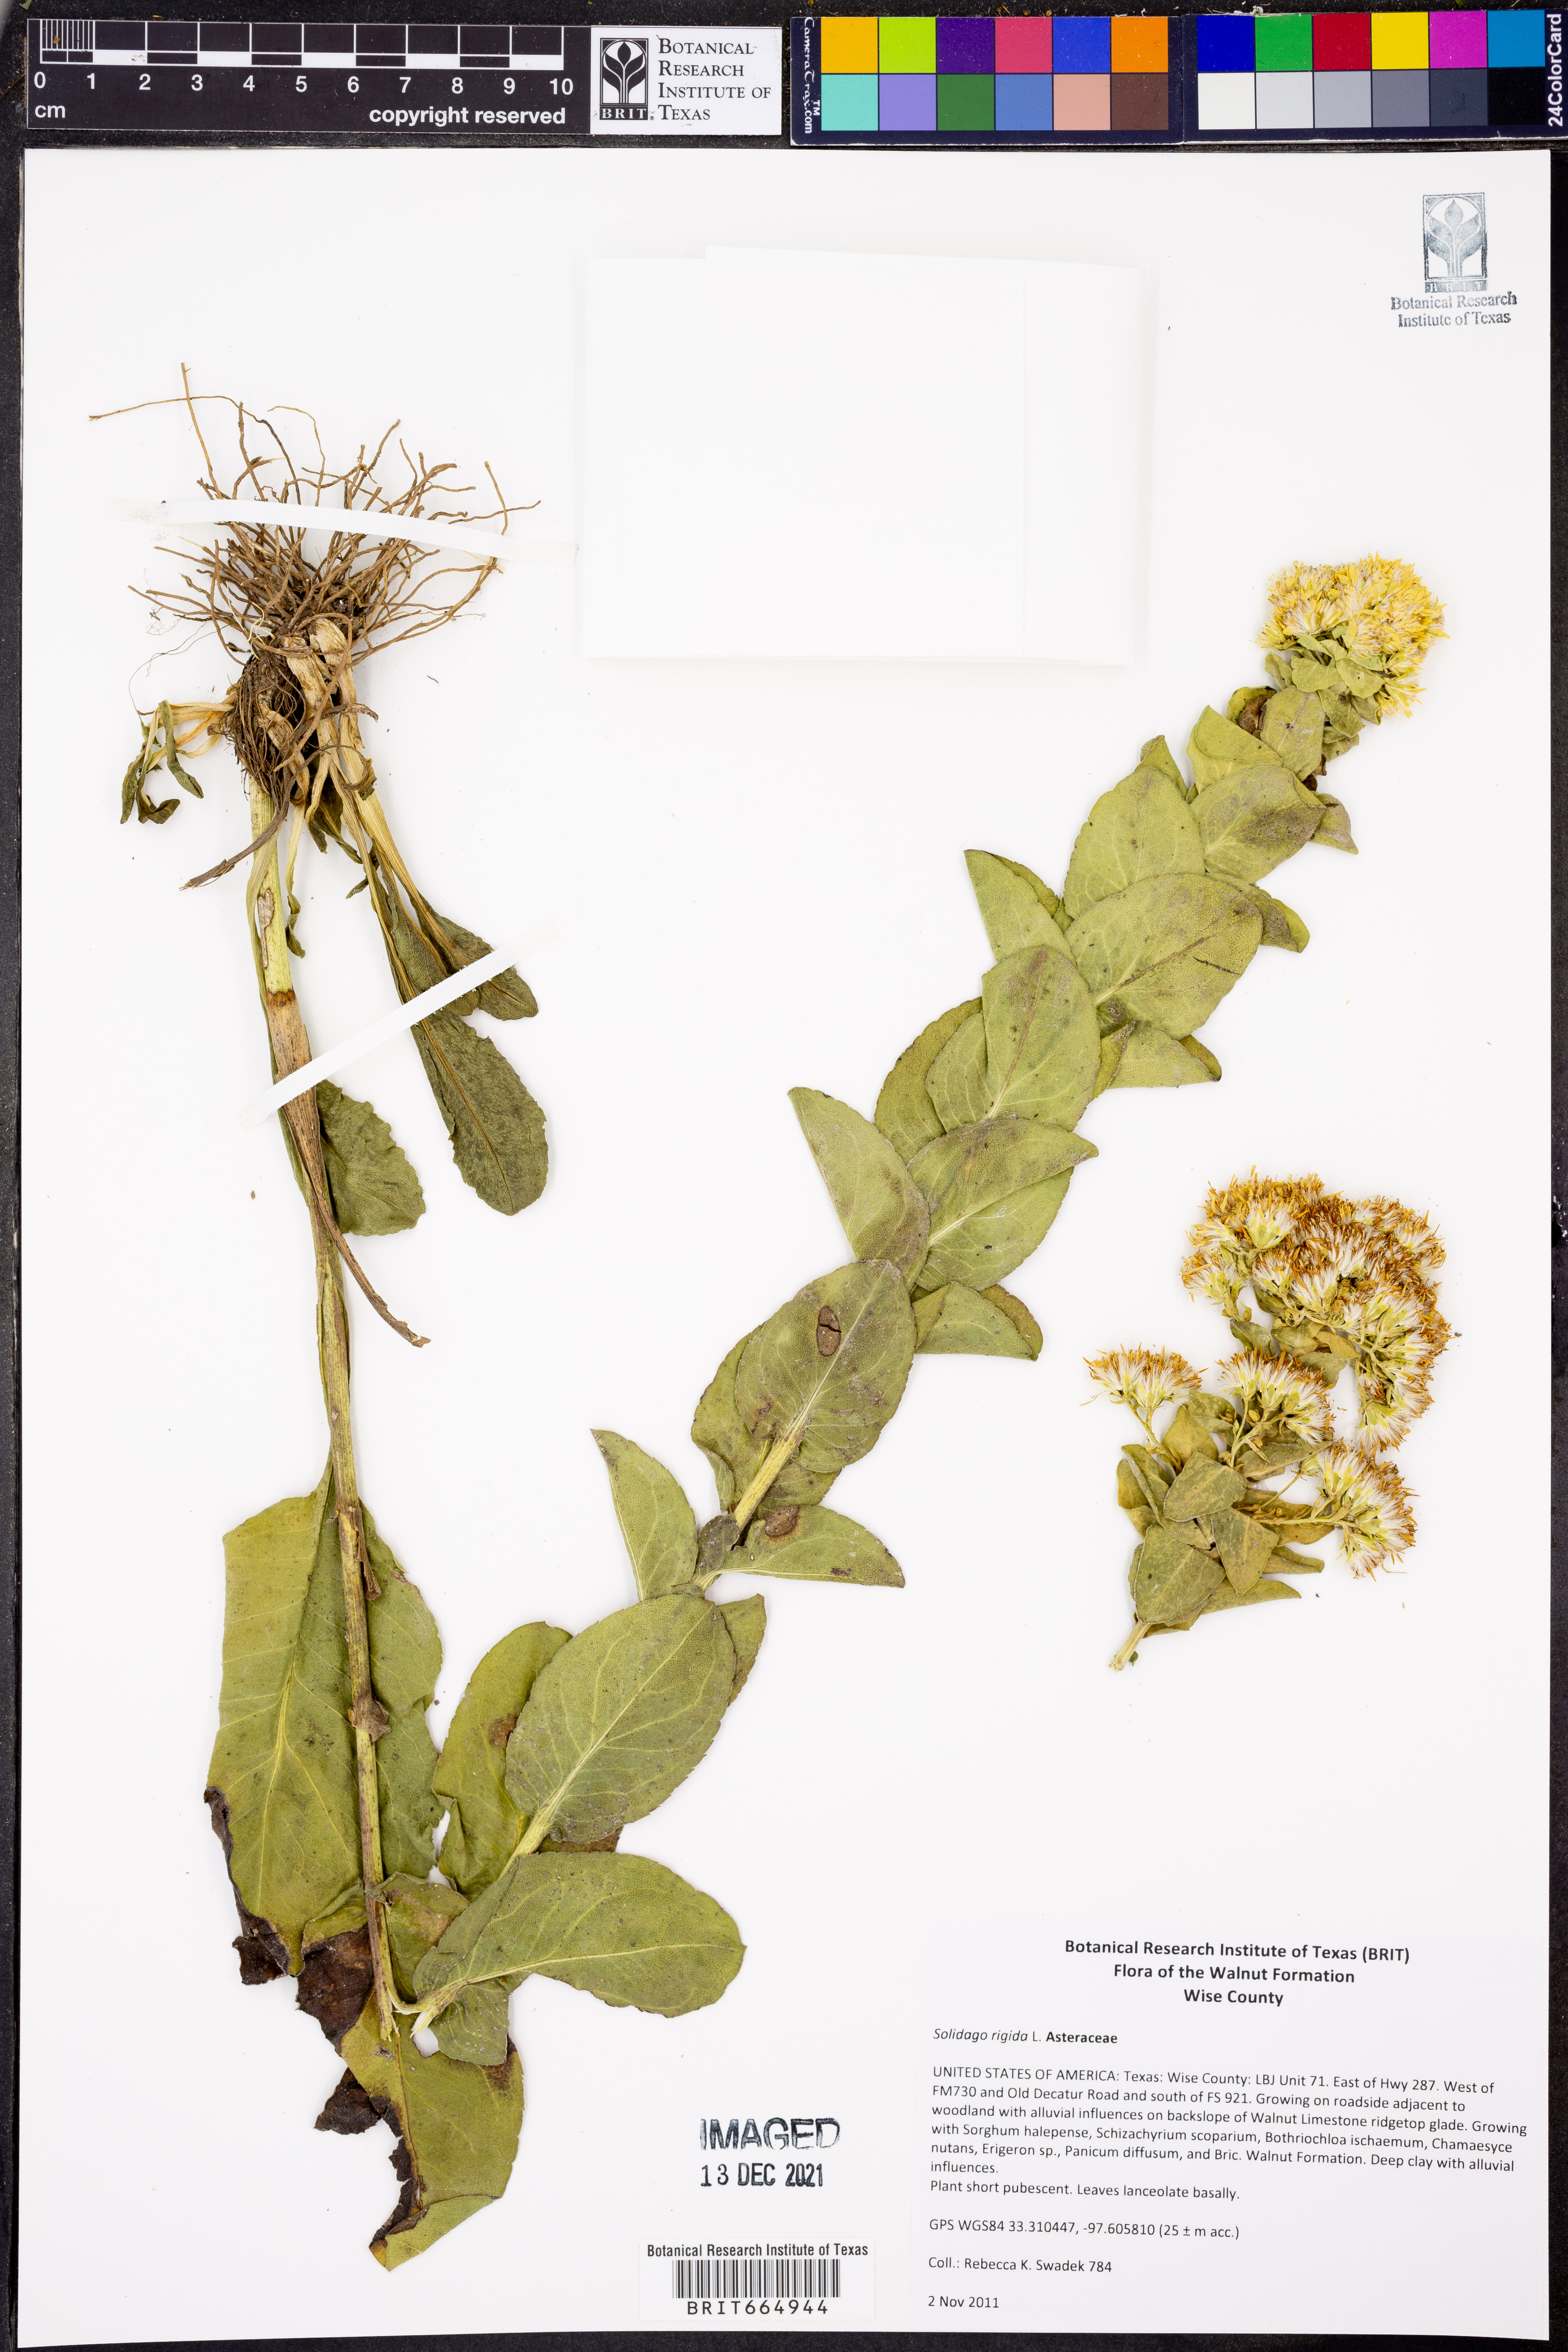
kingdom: Plantae
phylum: Tracheophyta
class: Magnoliopsida
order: Asterales
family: Asteraceae
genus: Solidago
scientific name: Solidago rigida
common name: Rigid goldenrod
